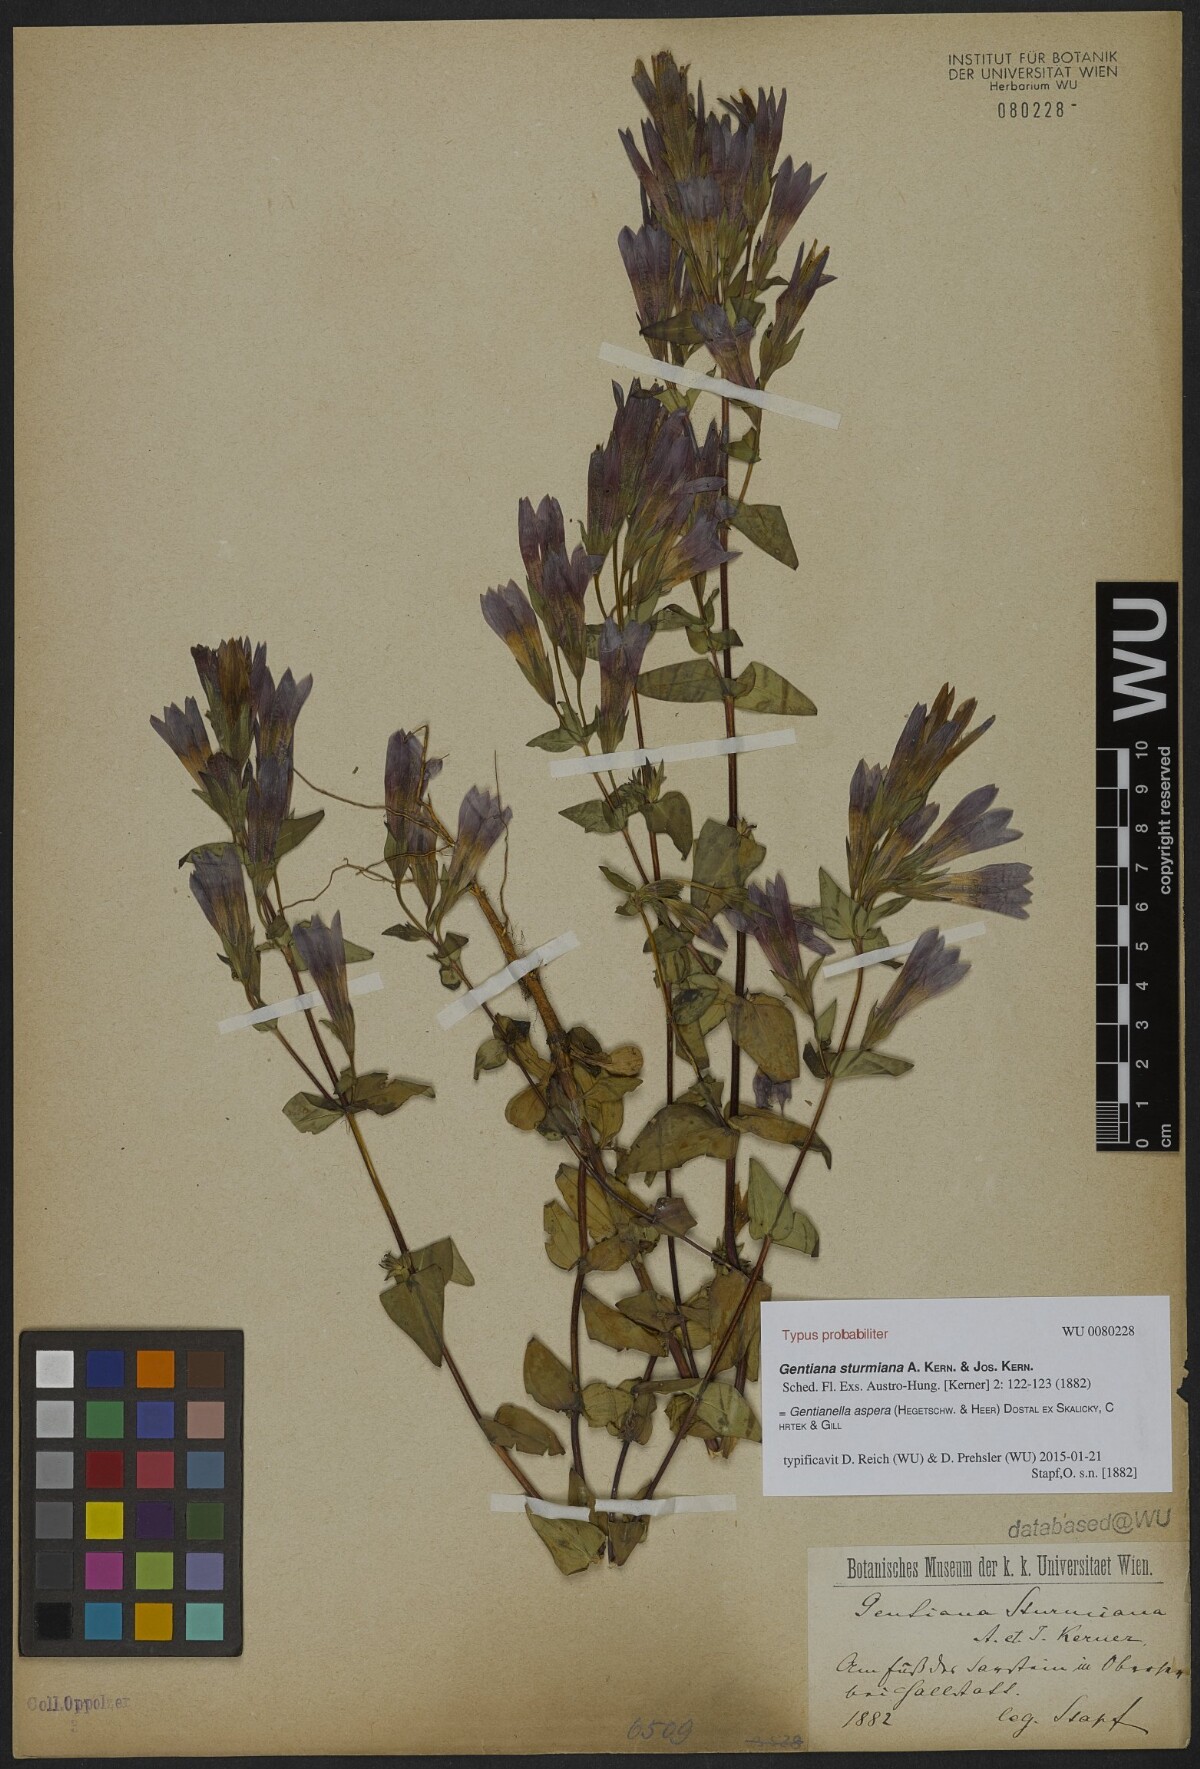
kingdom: Plantae
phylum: Tracheophyta
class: Magnoliopsida
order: Gentianales
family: Gentianaceae
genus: Gentianella
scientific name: Gentianella obtusifolia
